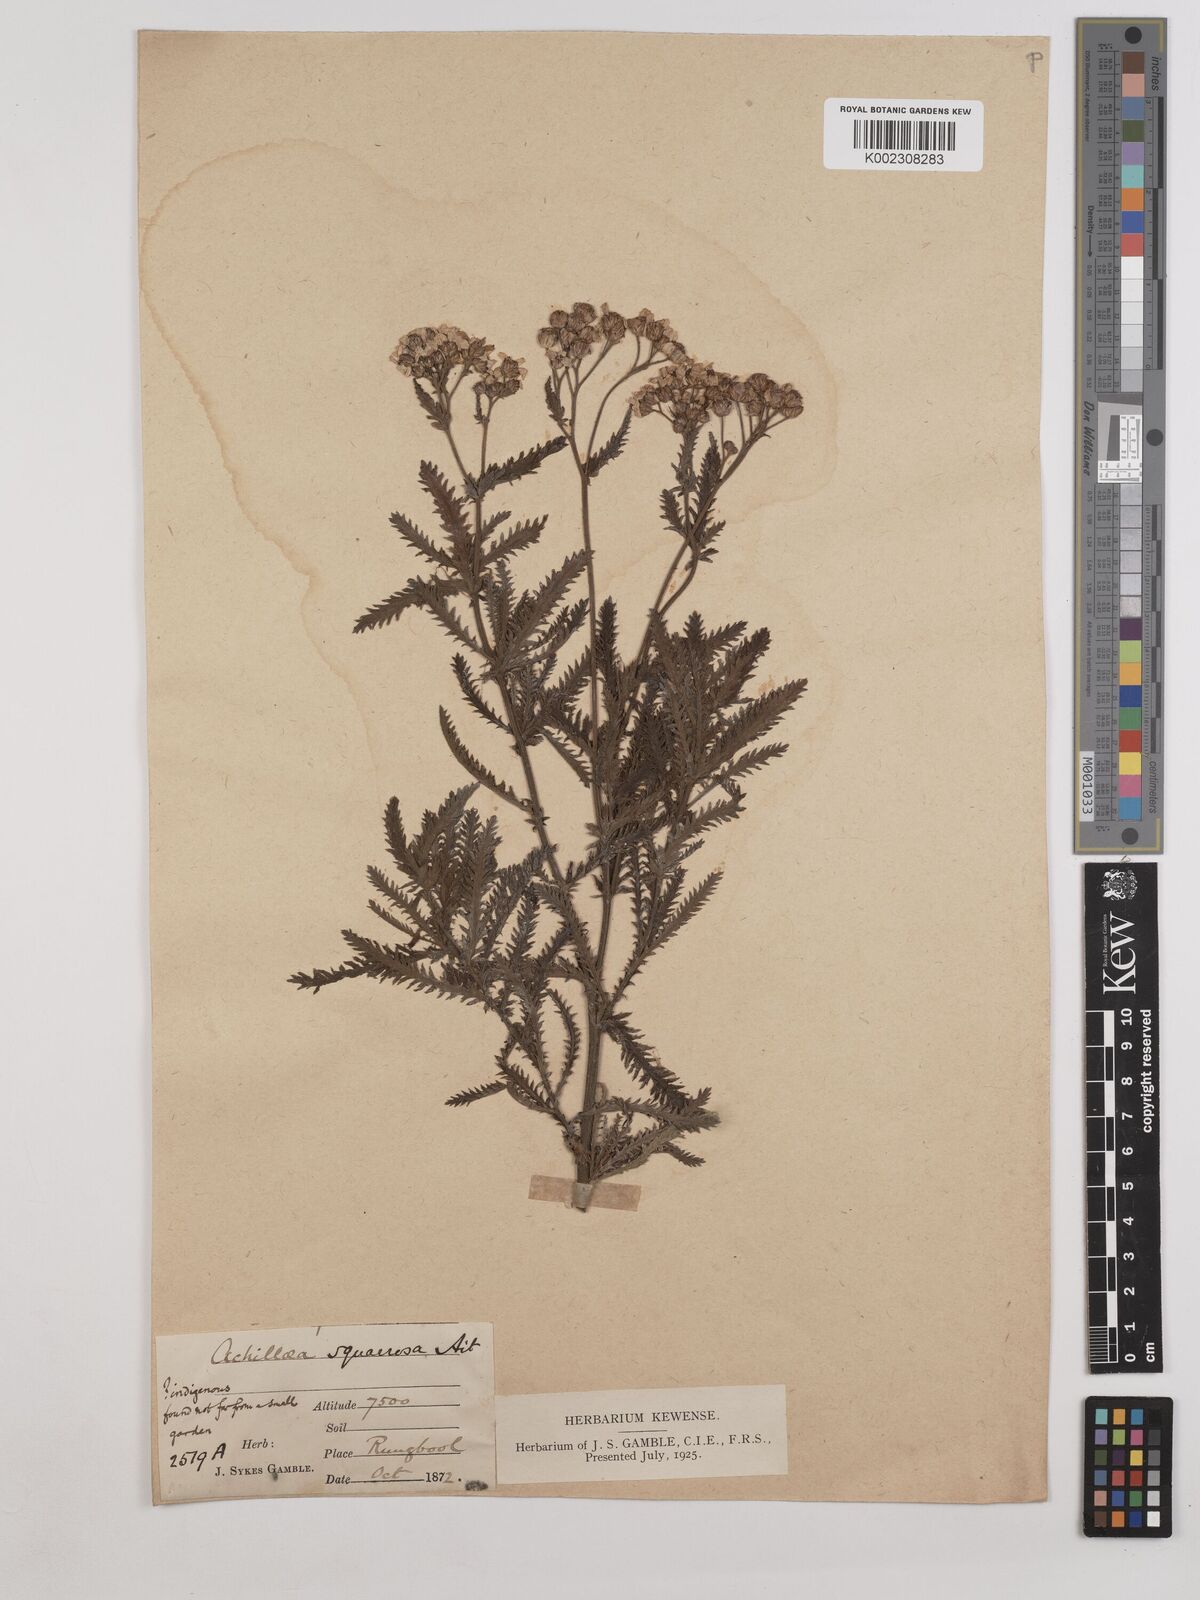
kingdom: Plantae
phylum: Tracheophyta
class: Magnoliopsida
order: Asterales
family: Asteraceae
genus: Achillea
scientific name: Achillea squarrosa
